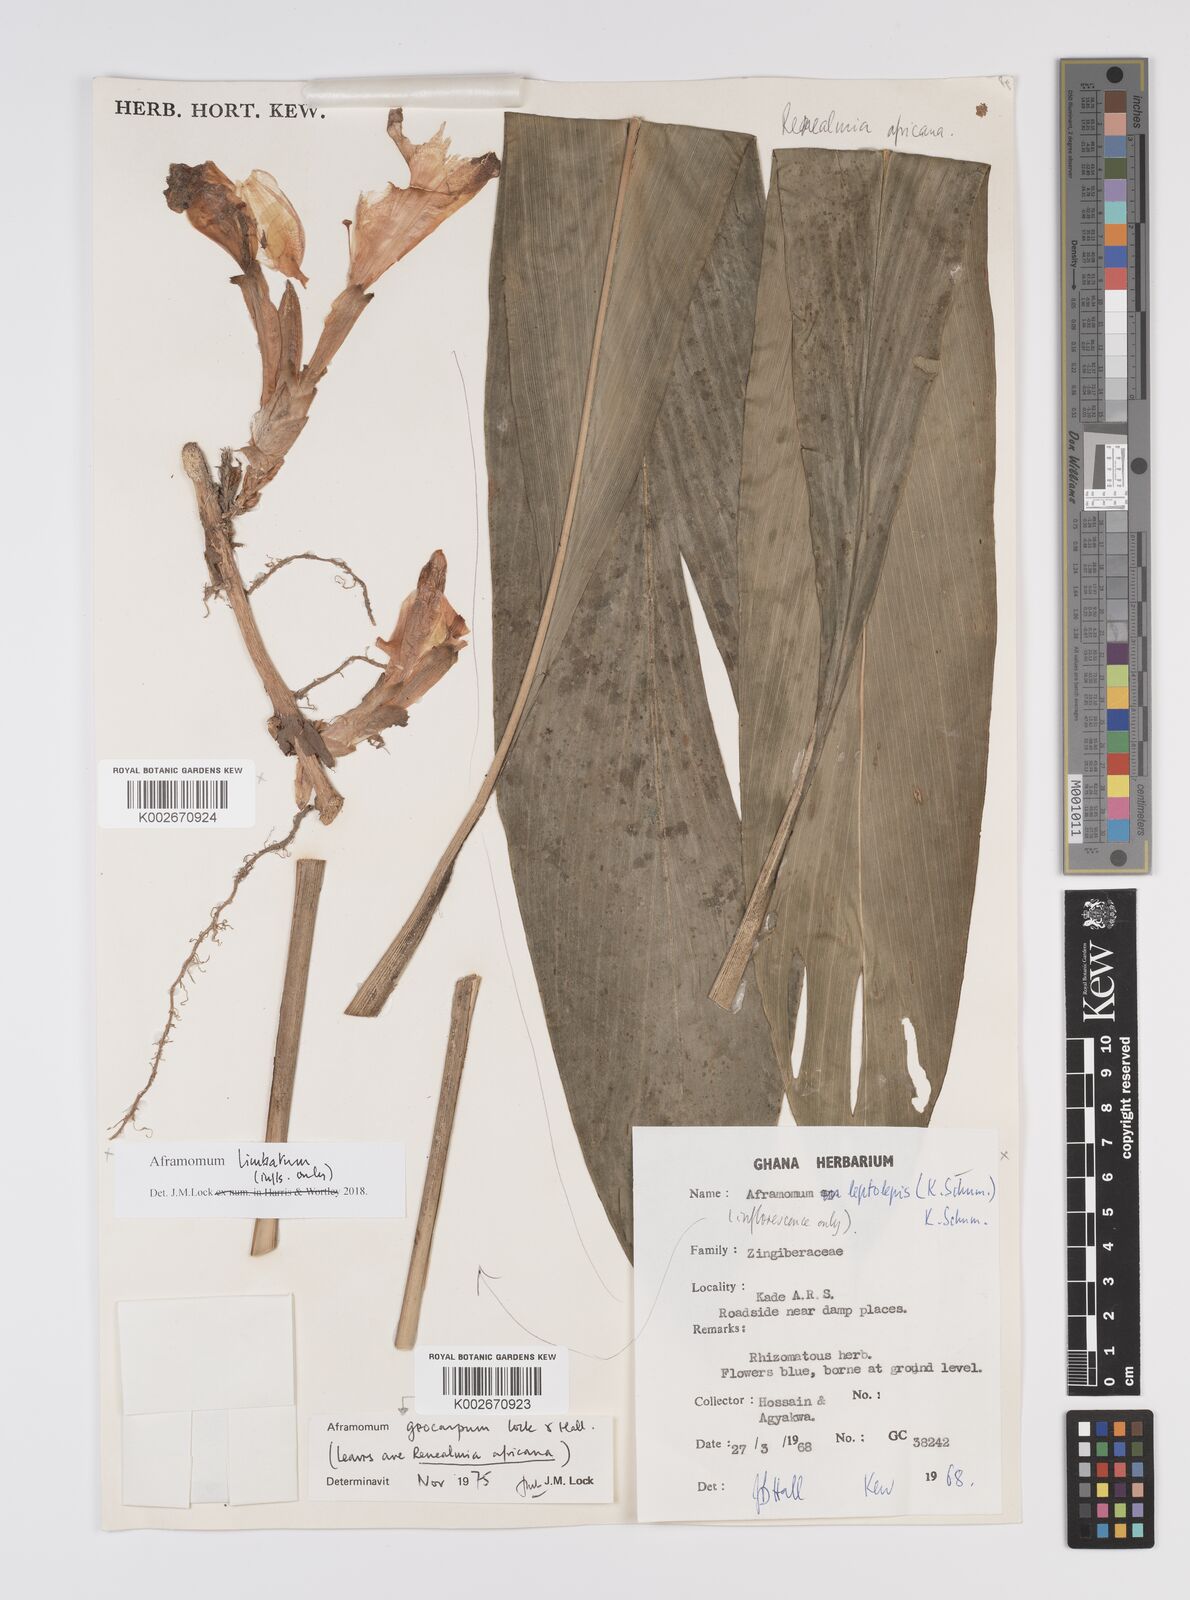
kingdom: Plantae
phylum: Tracheophyta
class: Liliopsida
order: Zingiberales
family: Zingiberaceae
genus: Aframomum
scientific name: Aframomum limbatum
